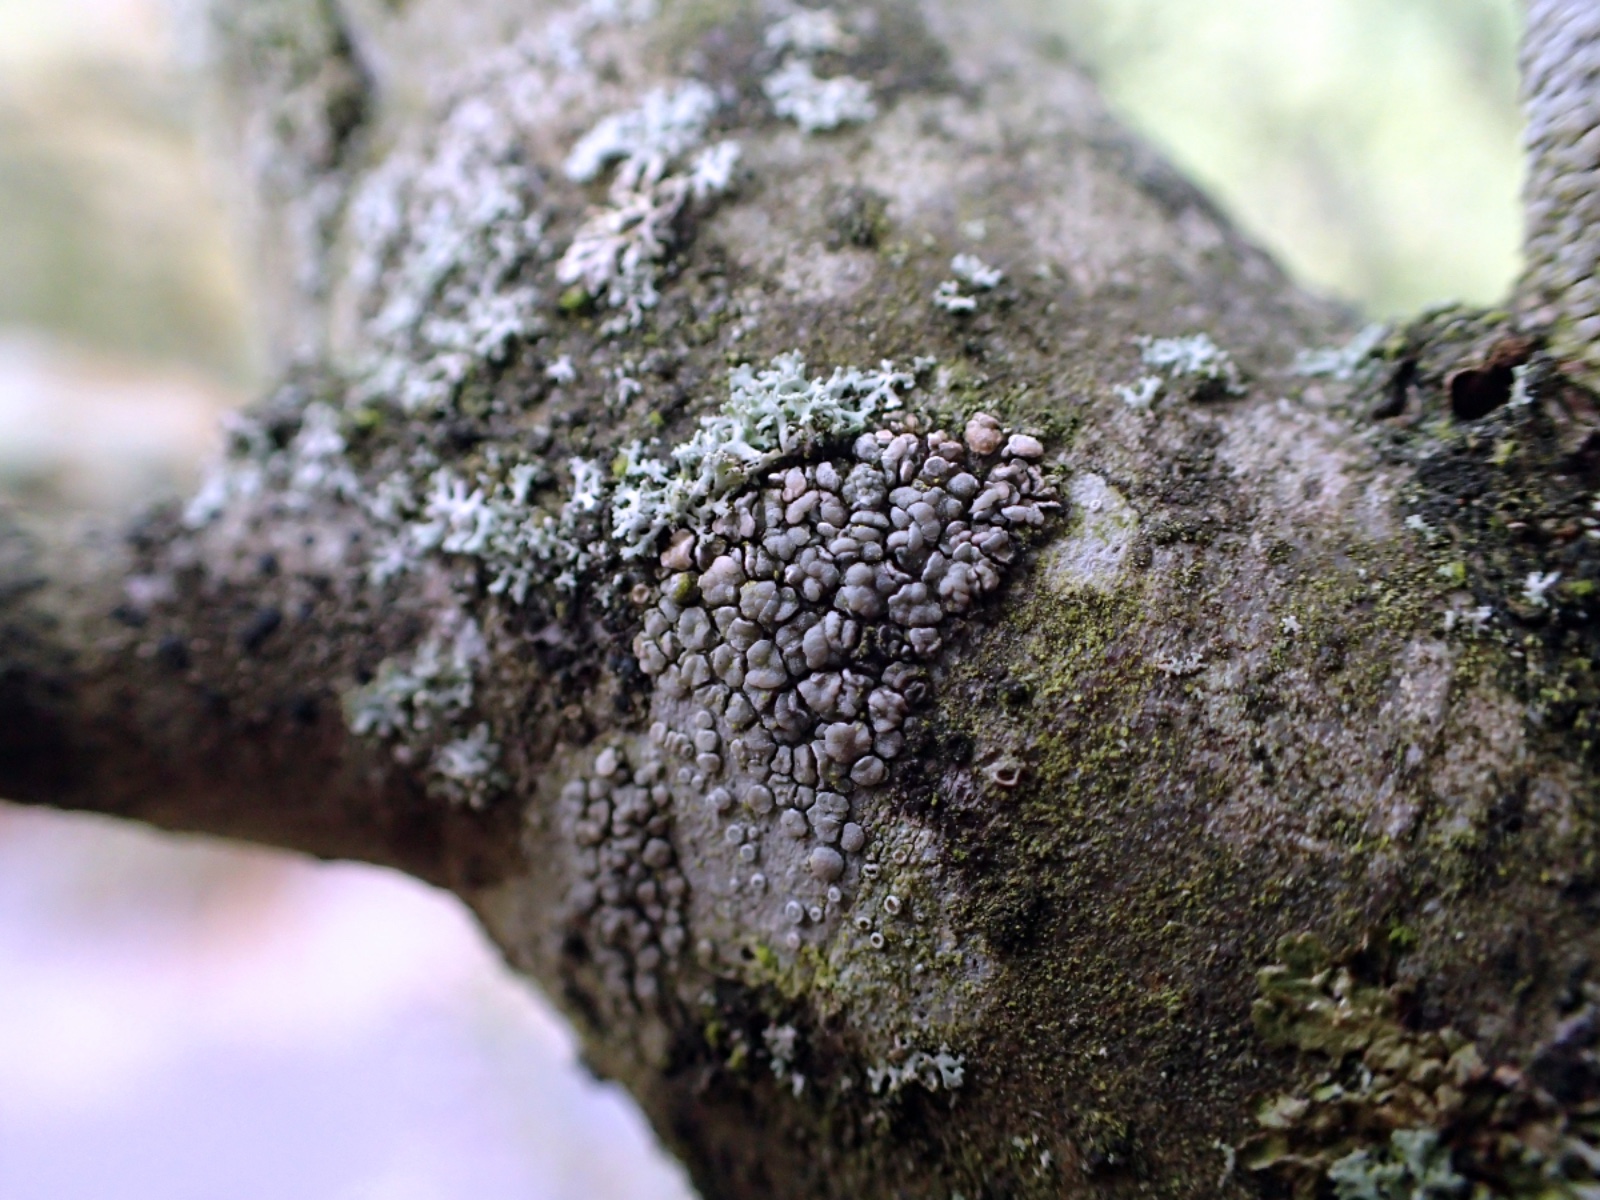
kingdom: Fungi
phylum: Ascomycota
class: Lecanoromycetes
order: Lecanorales
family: Lecanoraceae
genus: Glaucomaria
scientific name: Glaucomaria carpinea
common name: hviddugget kantskivelav
